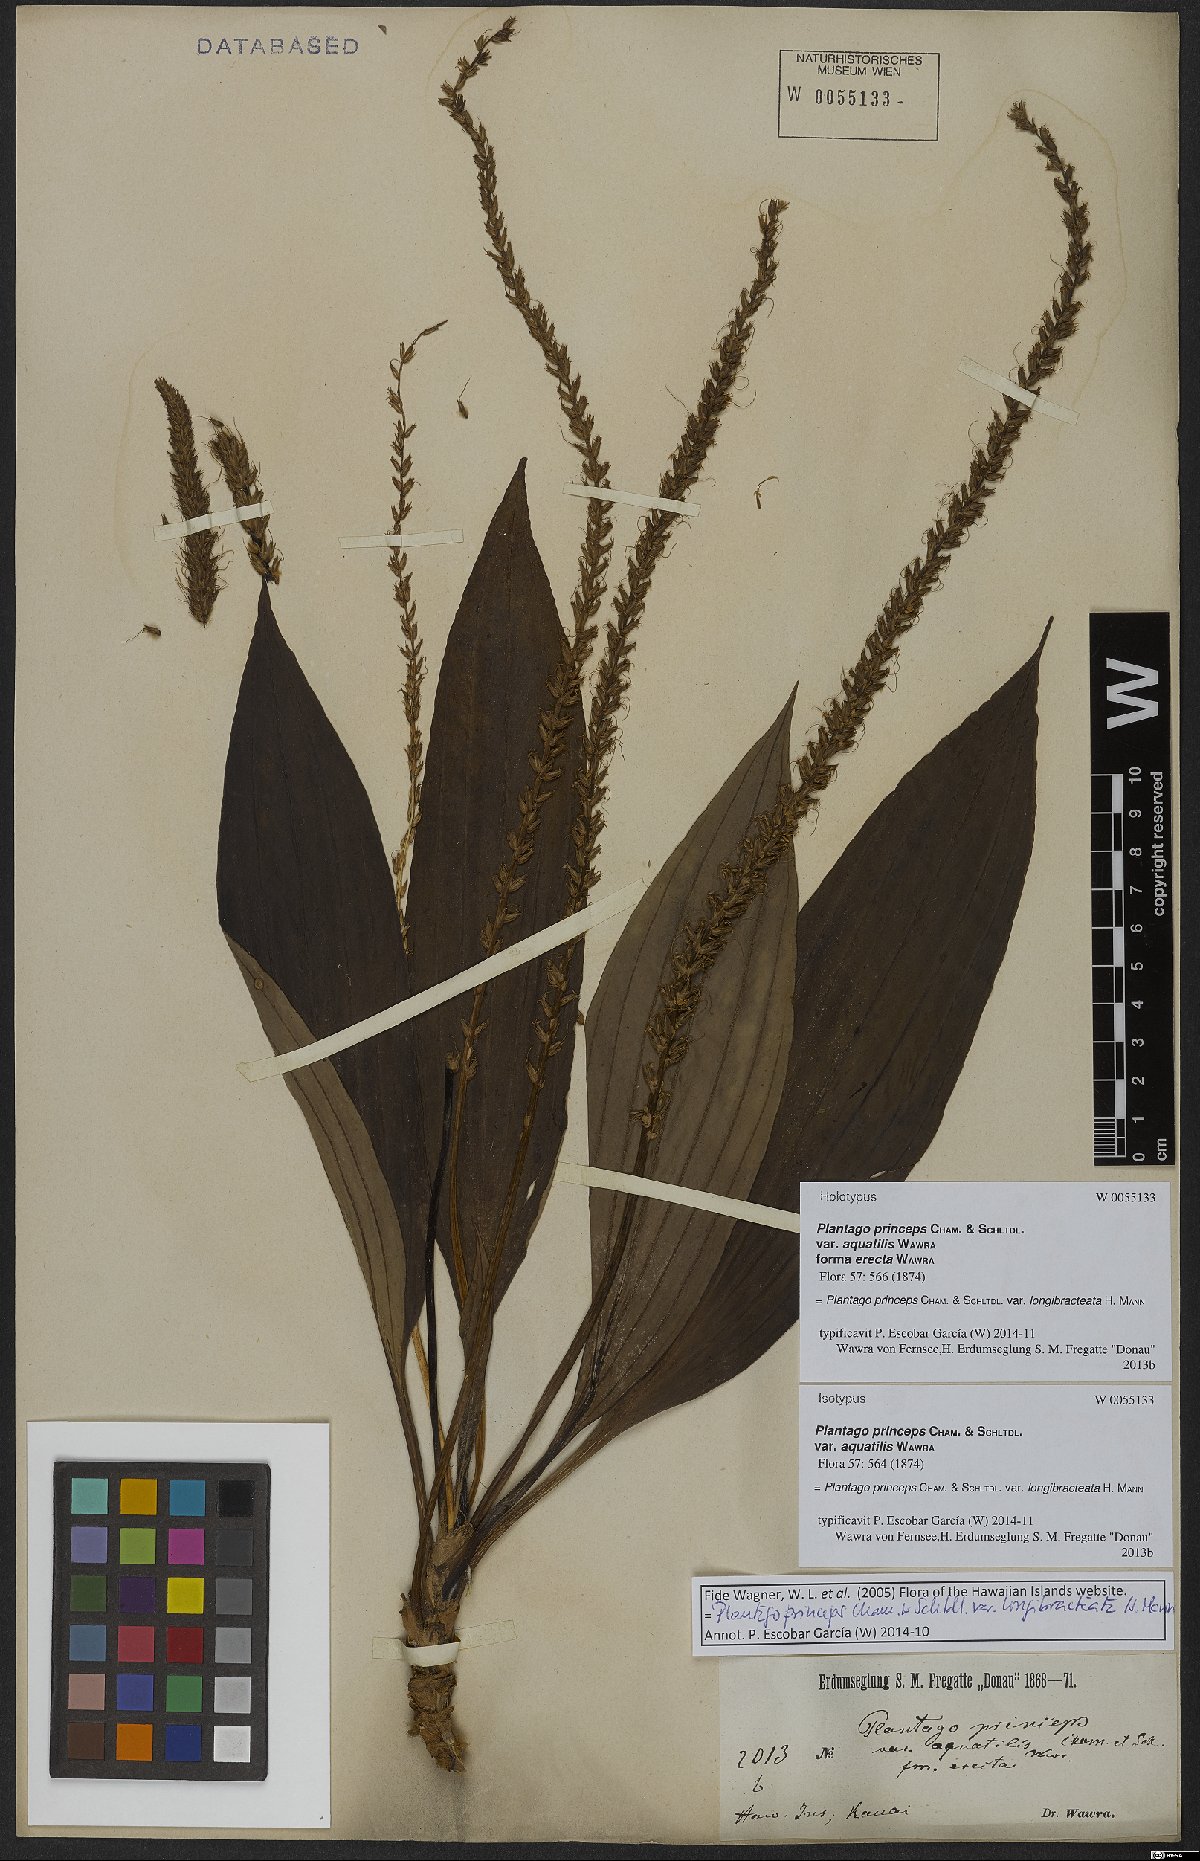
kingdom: Plantae
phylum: Tracheophyta
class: Magnoliopsida
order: Lamiales
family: Plantaginaceae
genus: Plantago
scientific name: Plantago princeps
